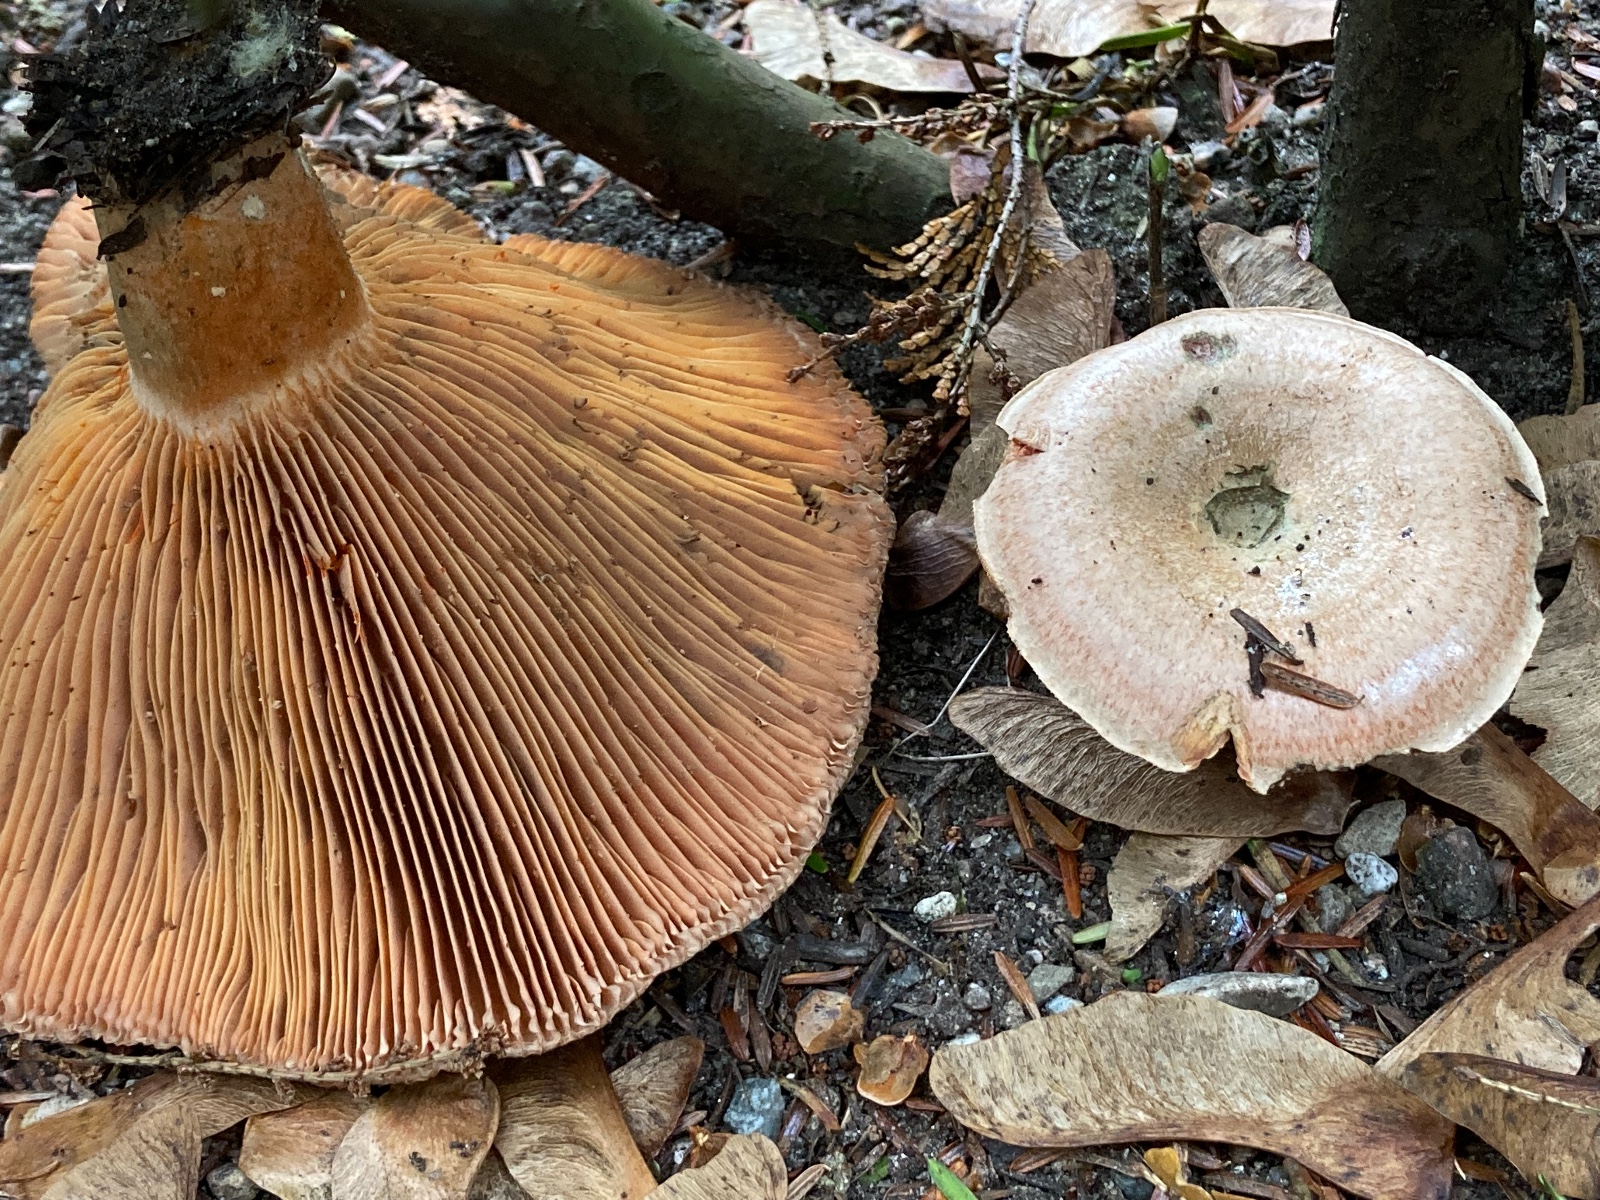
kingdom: Fungi
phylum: Basidiomycota
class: Agaricomycetes
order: Russulales
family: Russulaceae
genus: Lactarius
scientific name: Lactarius deterrimus
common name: gran-mælkehat
